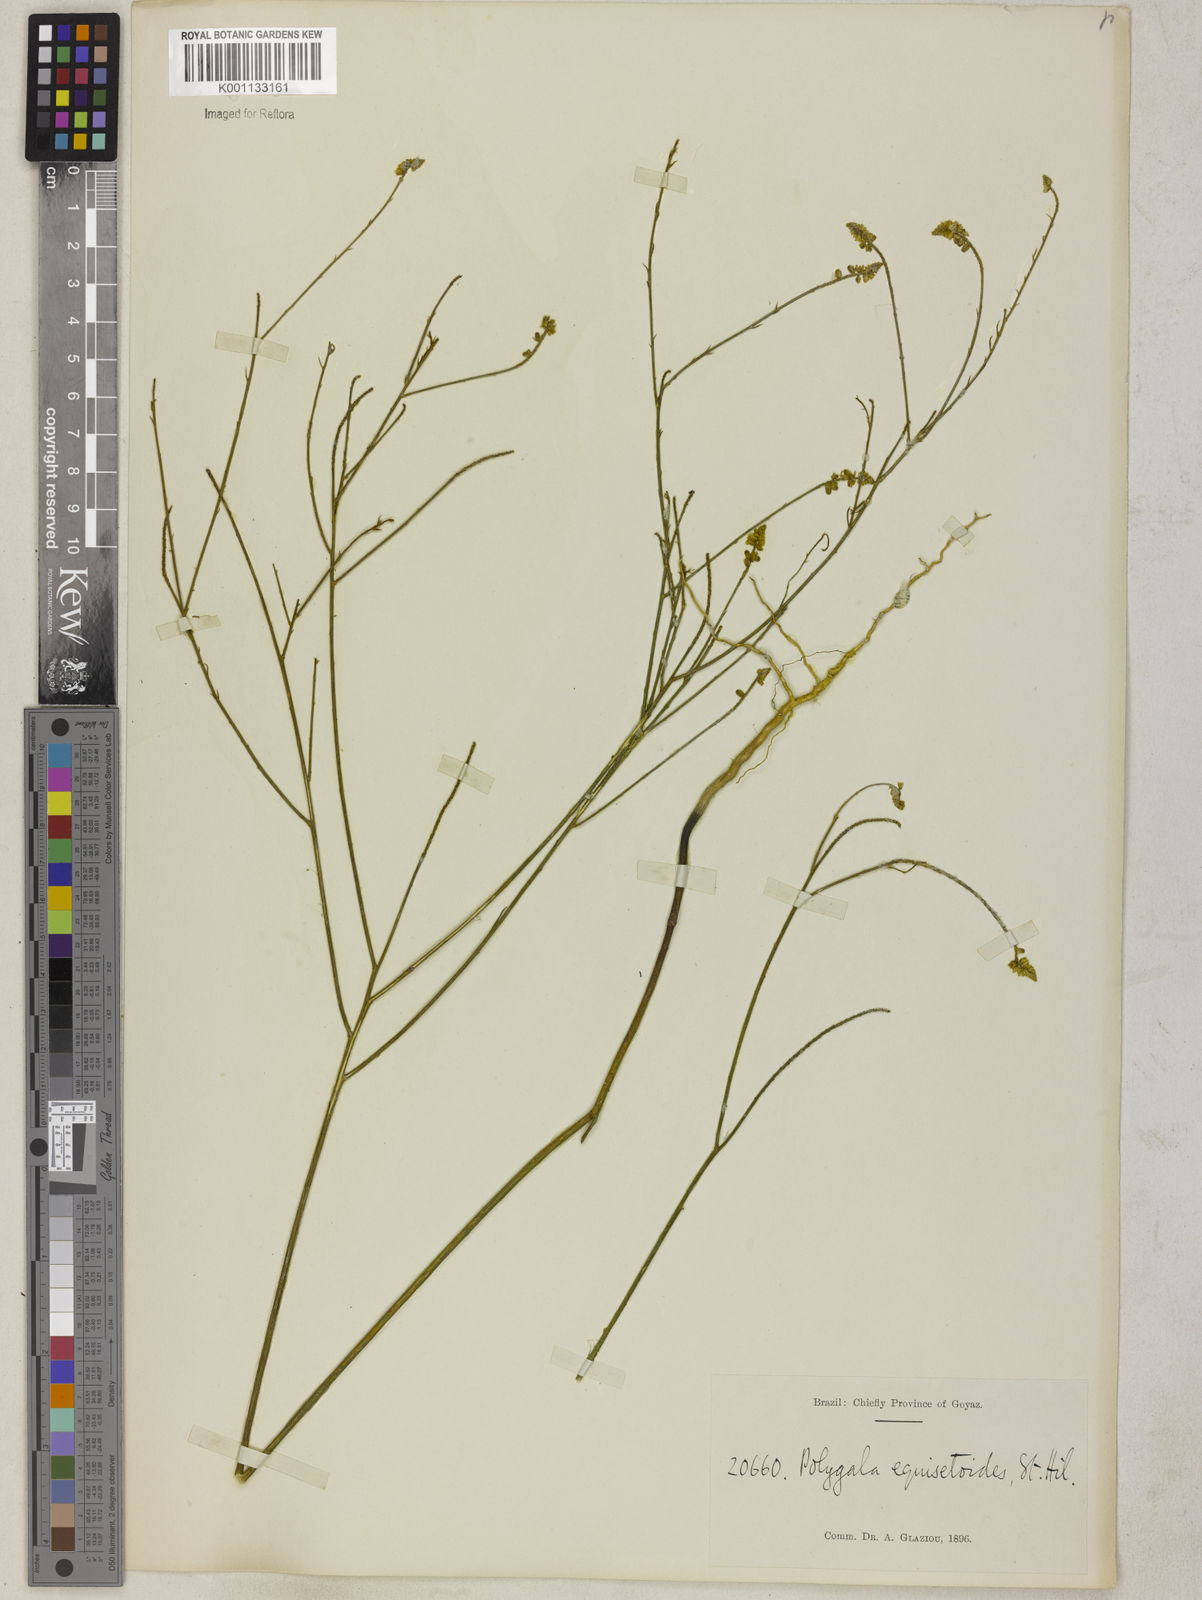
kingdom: Plantae
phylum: Tracheophyta
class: Magnoliopsida
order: Fabales
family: Polygalaceae
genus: Polygala
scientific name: Polygala equisetoides
